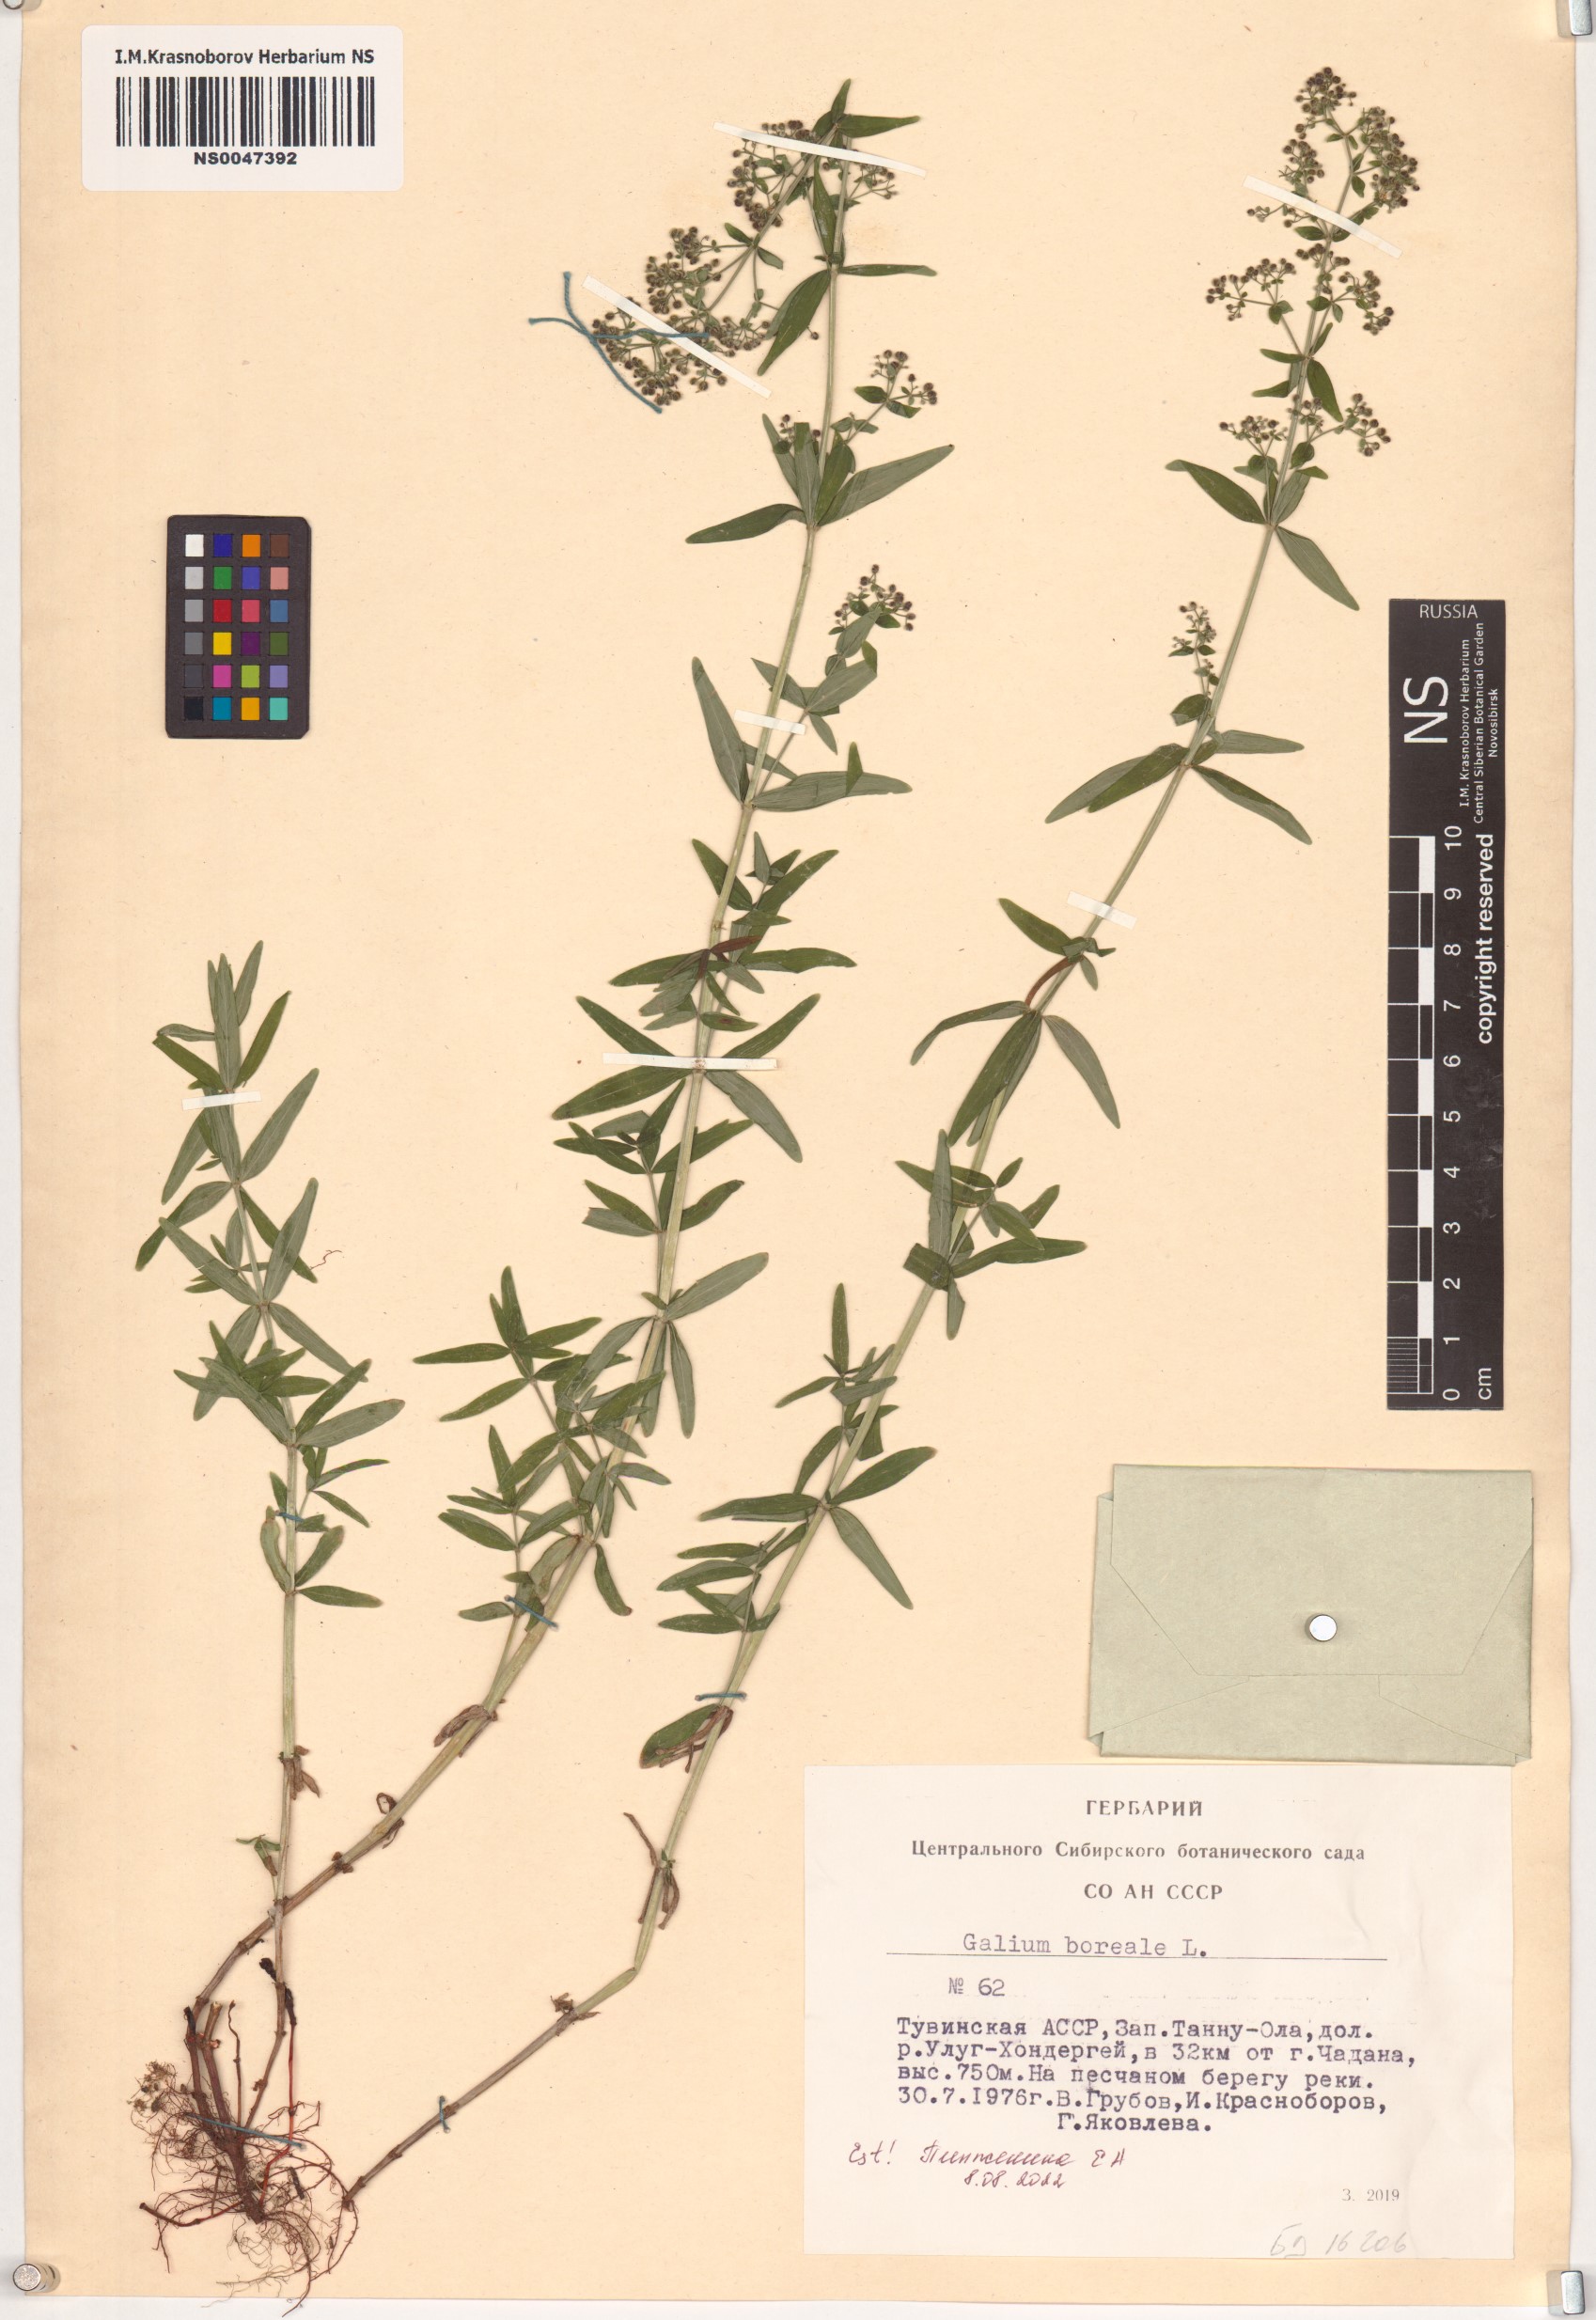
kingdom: Plantae
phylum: Tracheophyta
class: Magnoliopsida
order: Gentianales
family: Rubiaceae
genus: Galium
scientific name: Galium boreale
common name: Northern bedstraw
